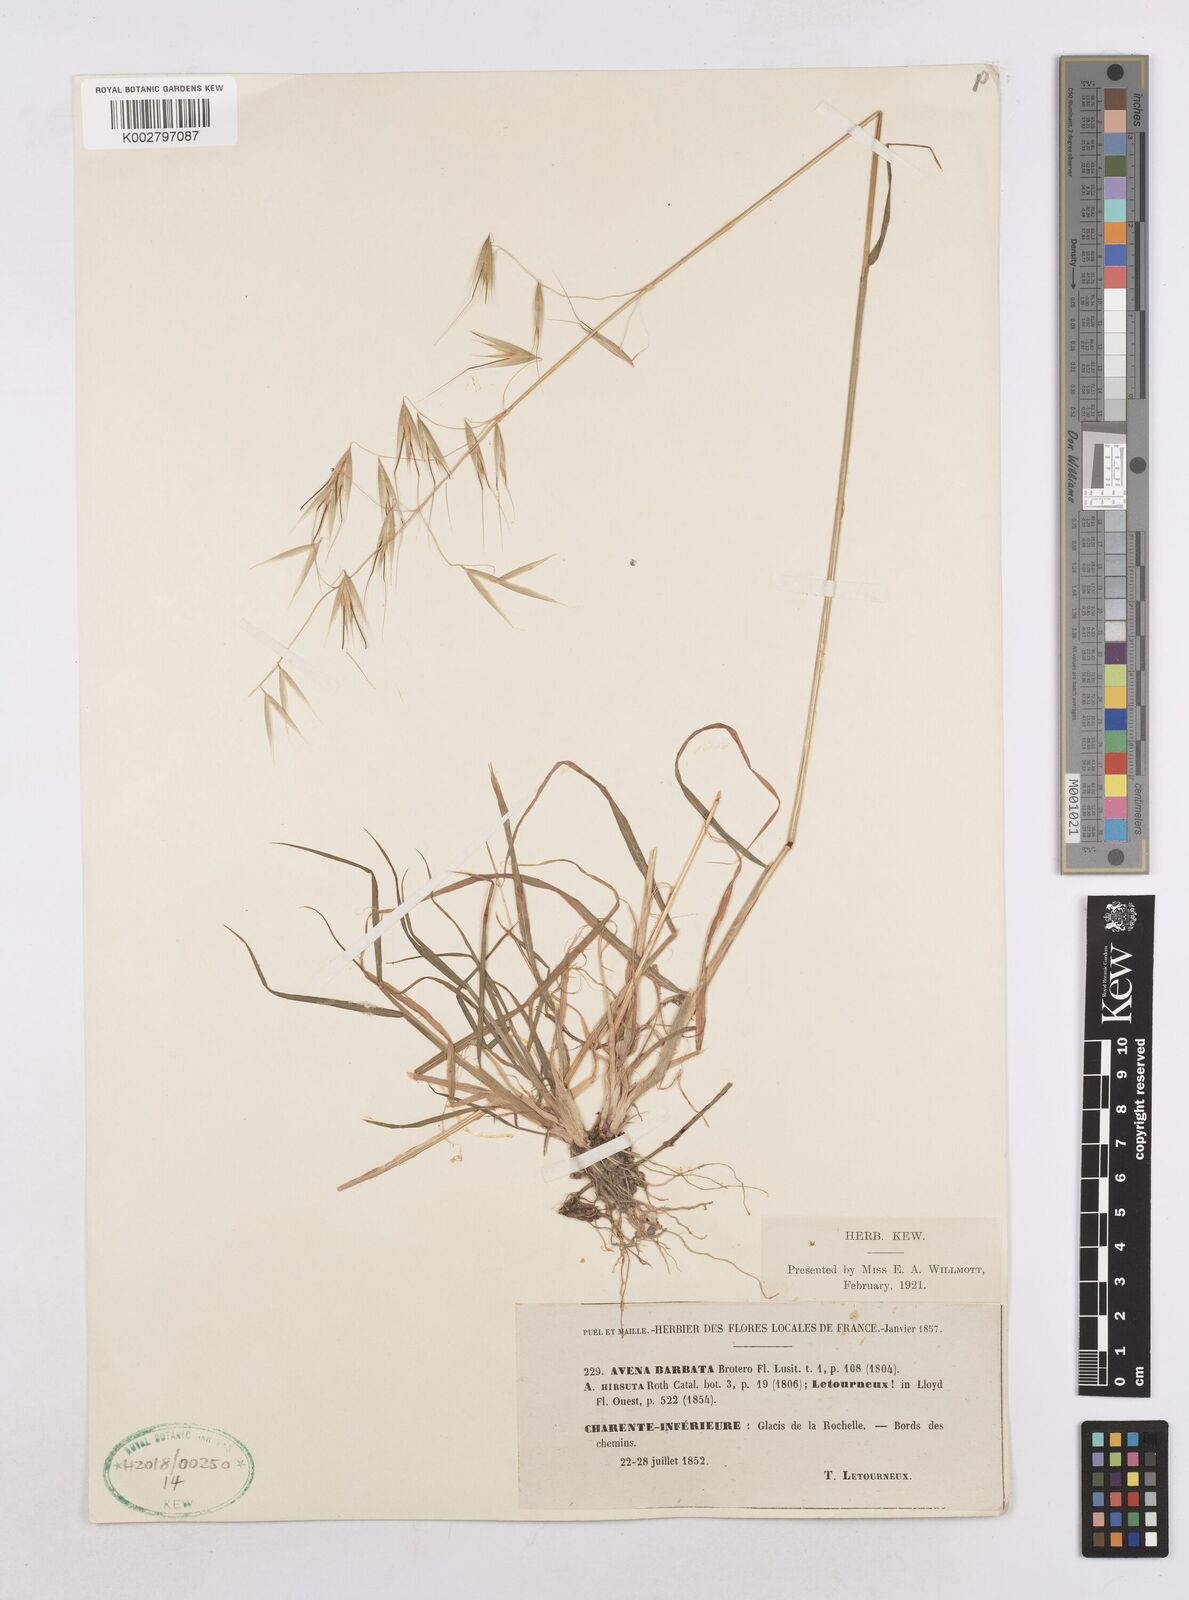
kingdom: Plantae
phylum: Tracheophyta
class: Liliopsida
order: Poales
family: Poaceae
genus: Avena
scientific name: Avena
